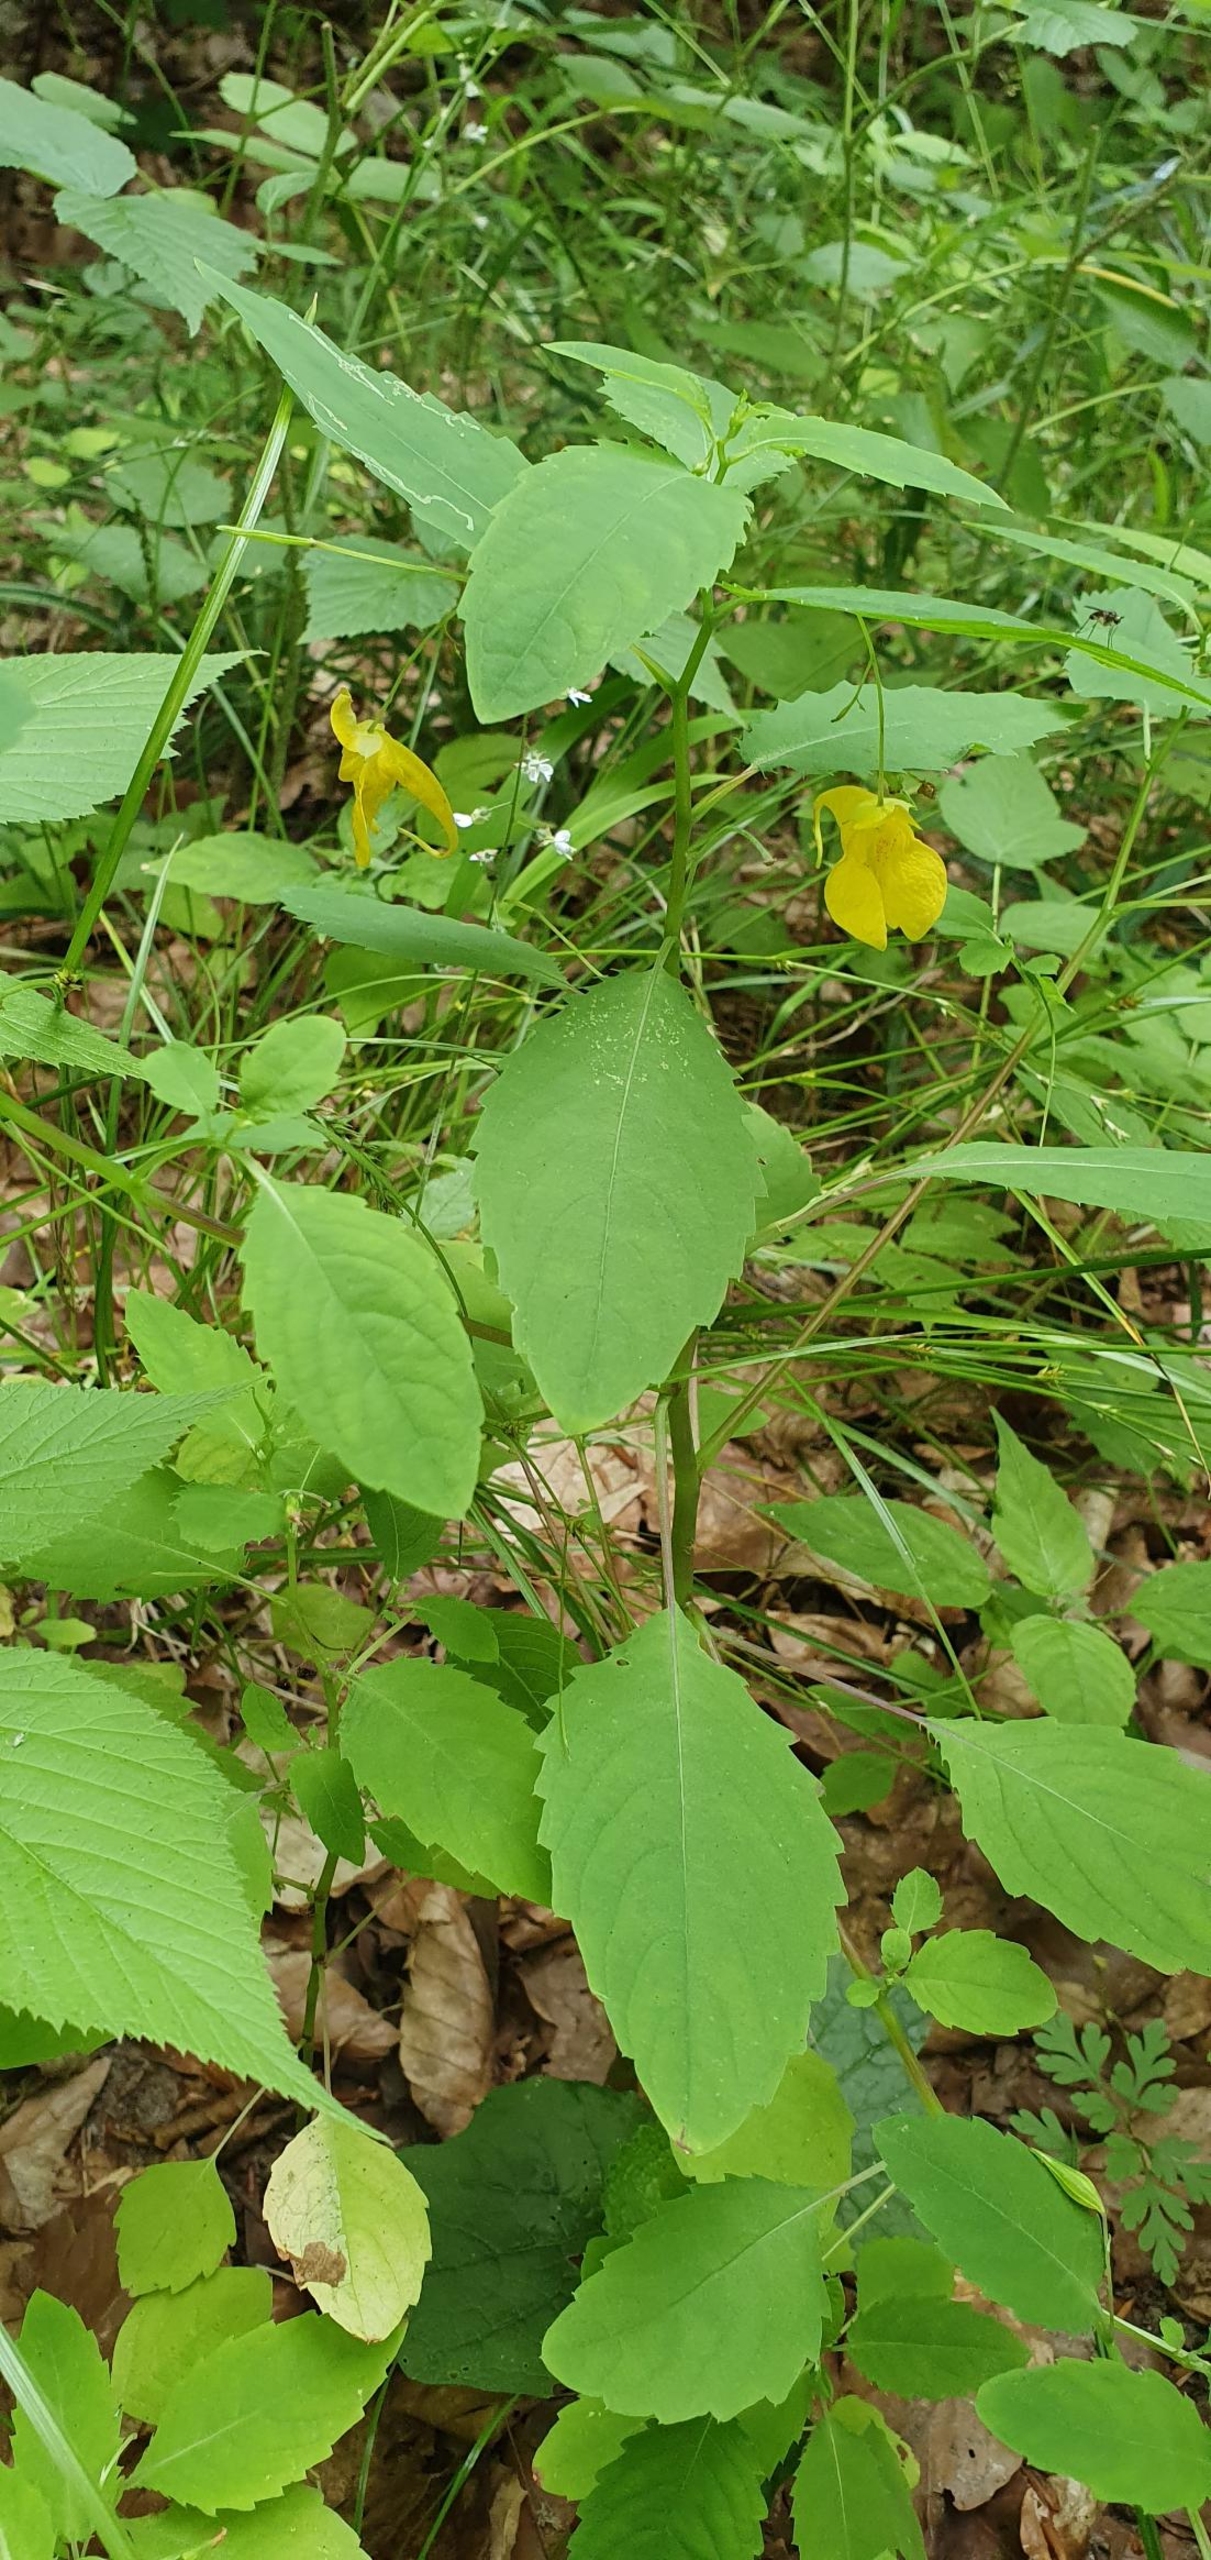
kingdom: Plantae
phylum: Tracheophyta
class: Magnoliopsida
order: Ericales
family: Balsaminaceae
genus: Impatiens
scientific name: Impatiens noli-tangere
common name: Spring-balsamin
